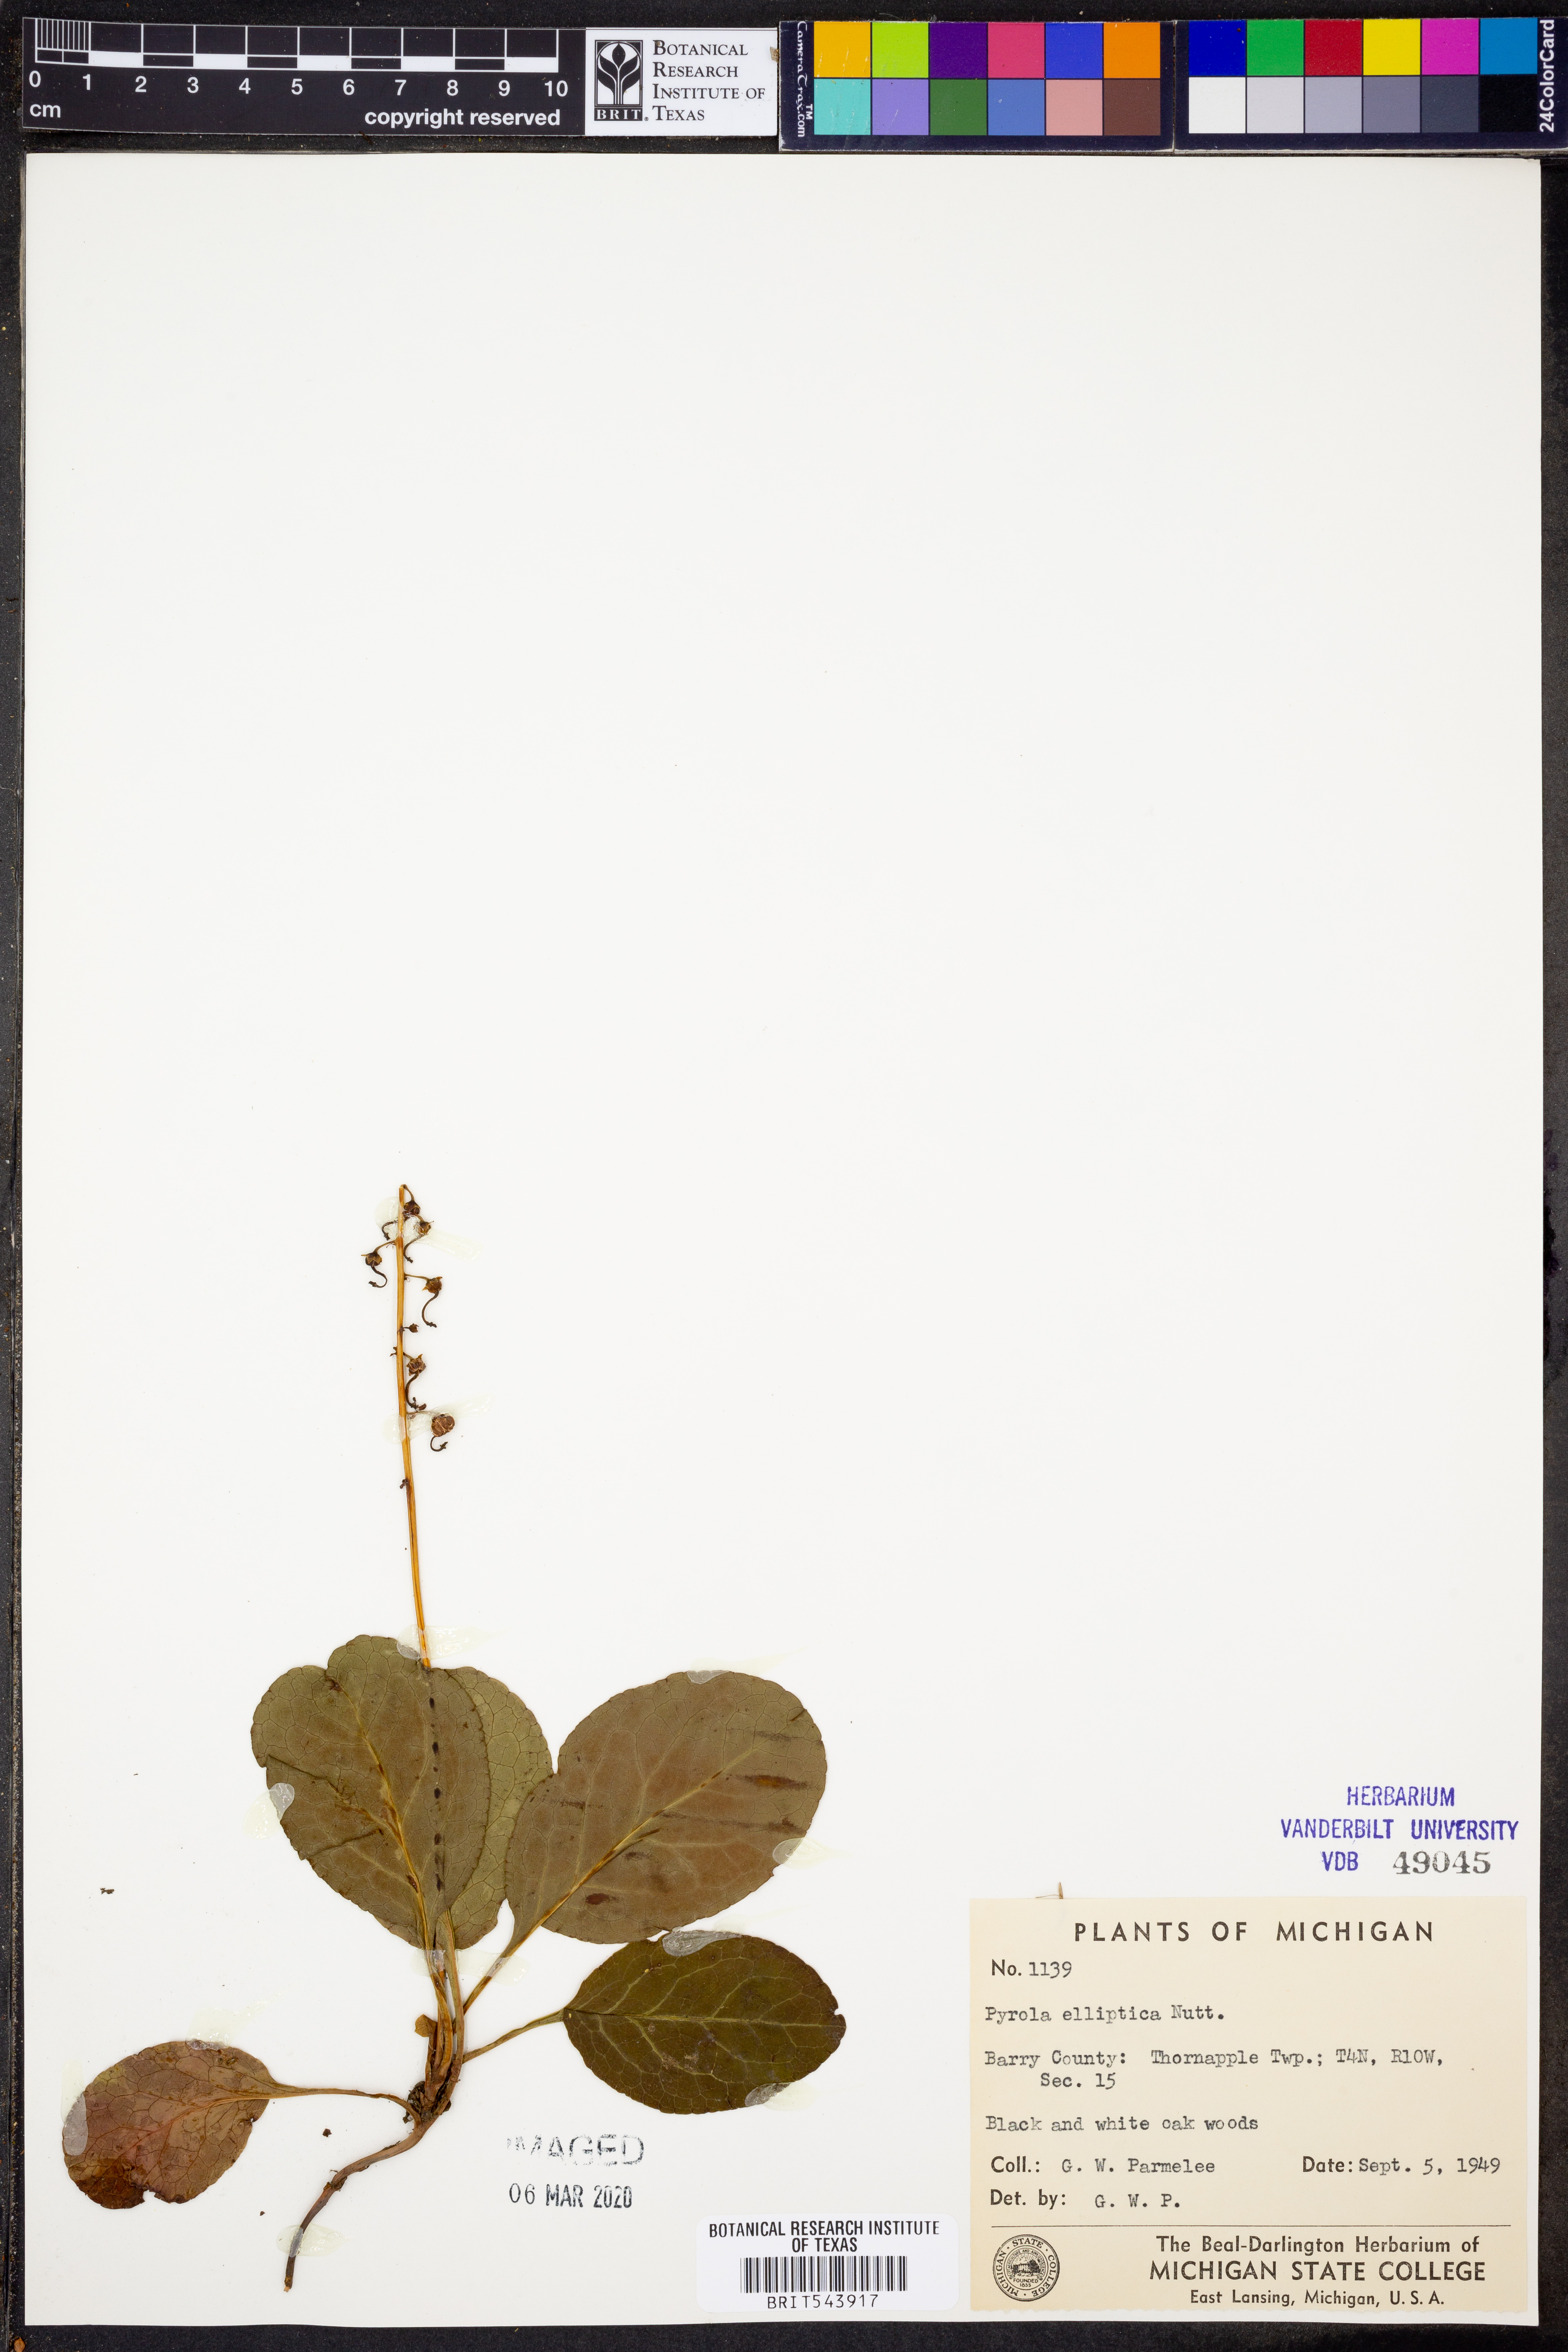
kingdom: Plantae
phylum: Tracheophyta
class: Magnoliopsida
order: Ericales
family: Ericaceae
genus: Pyrola
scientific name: Pyrola elliptica
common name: Shinleaf
